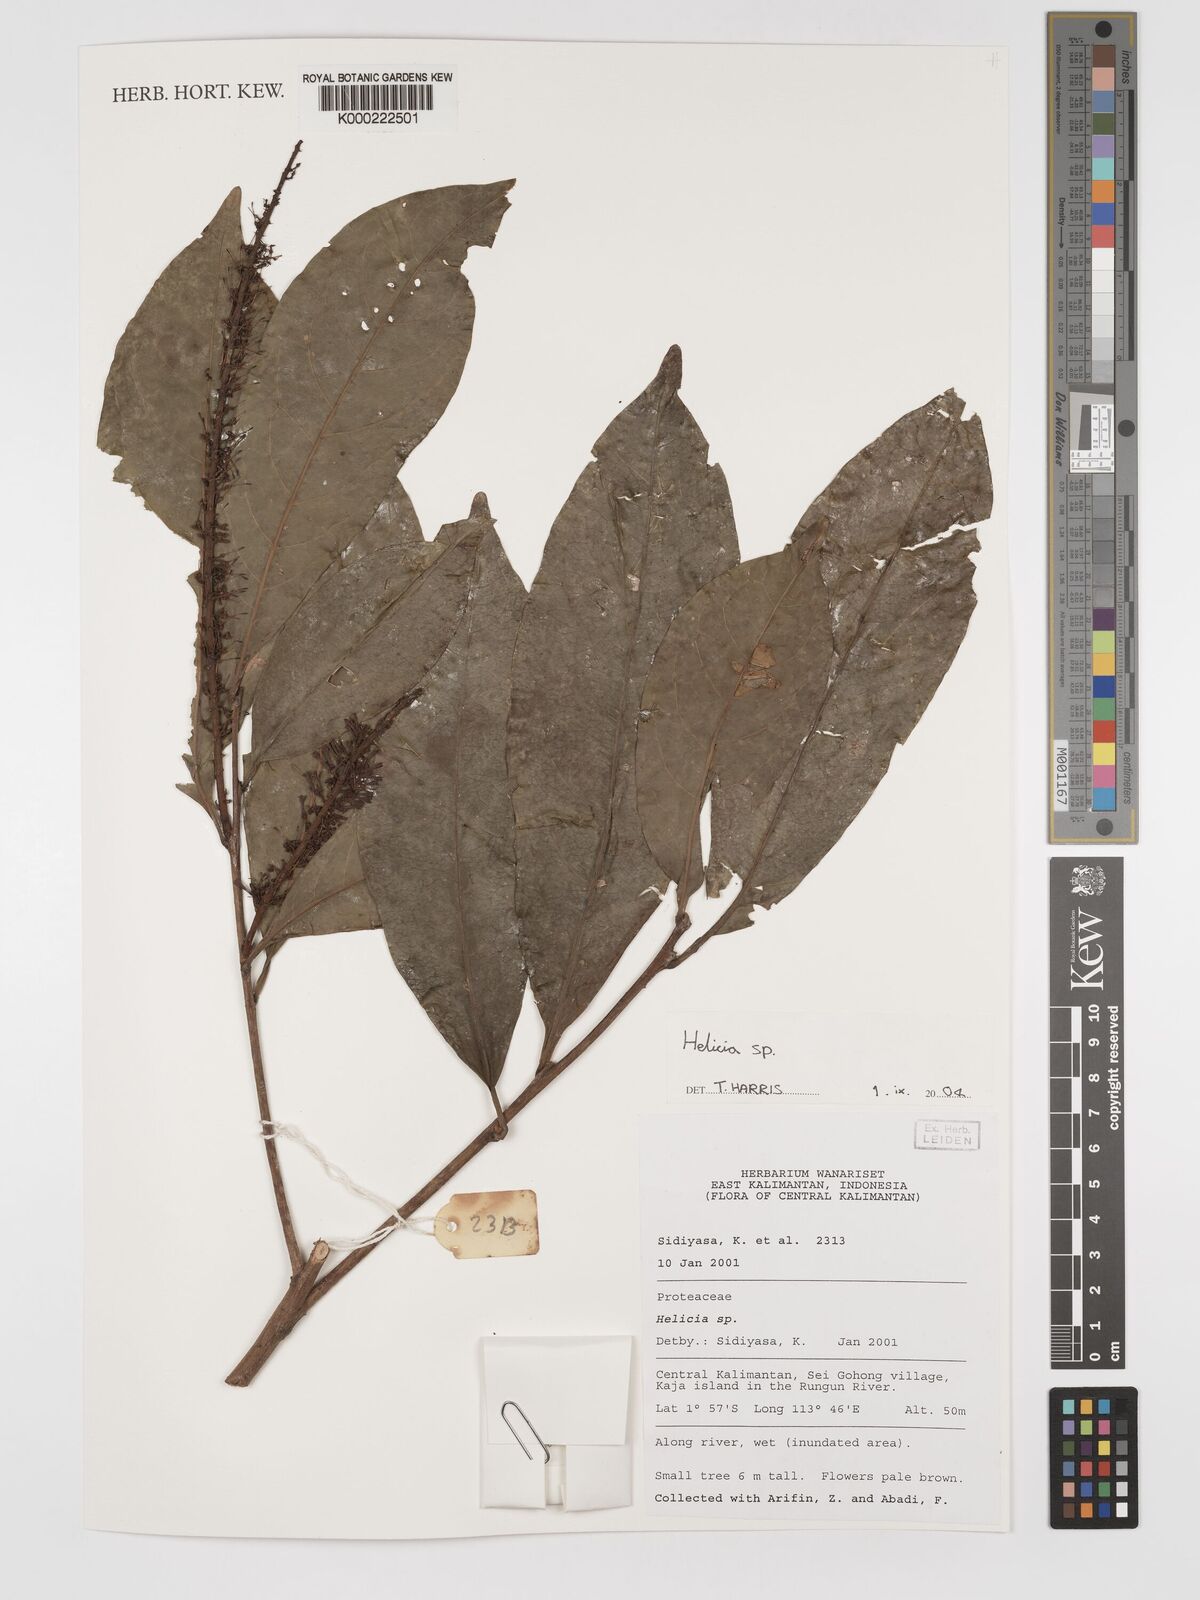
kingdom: Plantae
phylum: Tracheophyta
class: Magnoliopsida
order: Proteales
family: Proteaceae
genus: Helicia
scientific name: Helicia
